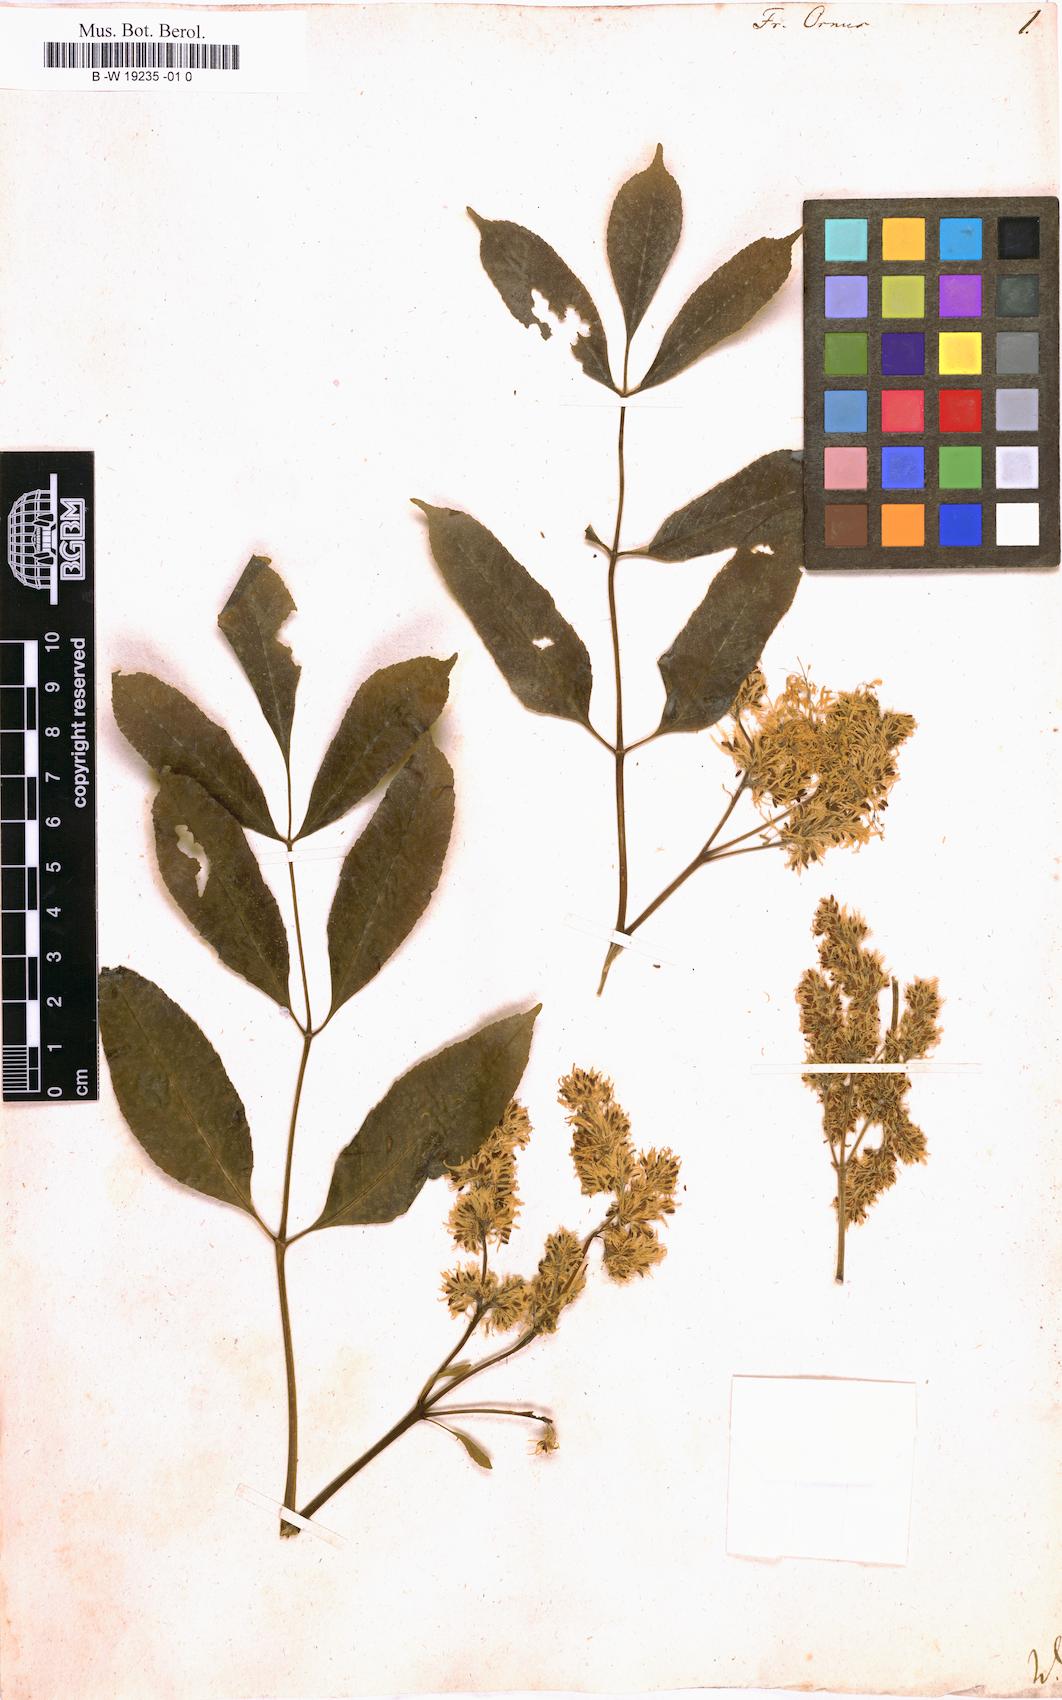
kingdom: Plantae
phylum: Tracheophyta
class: Magnoliopsida
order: Lamiales
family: Oleaceae
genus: Fraxinus
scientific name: Fraxinus ornus
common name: Manna ash
